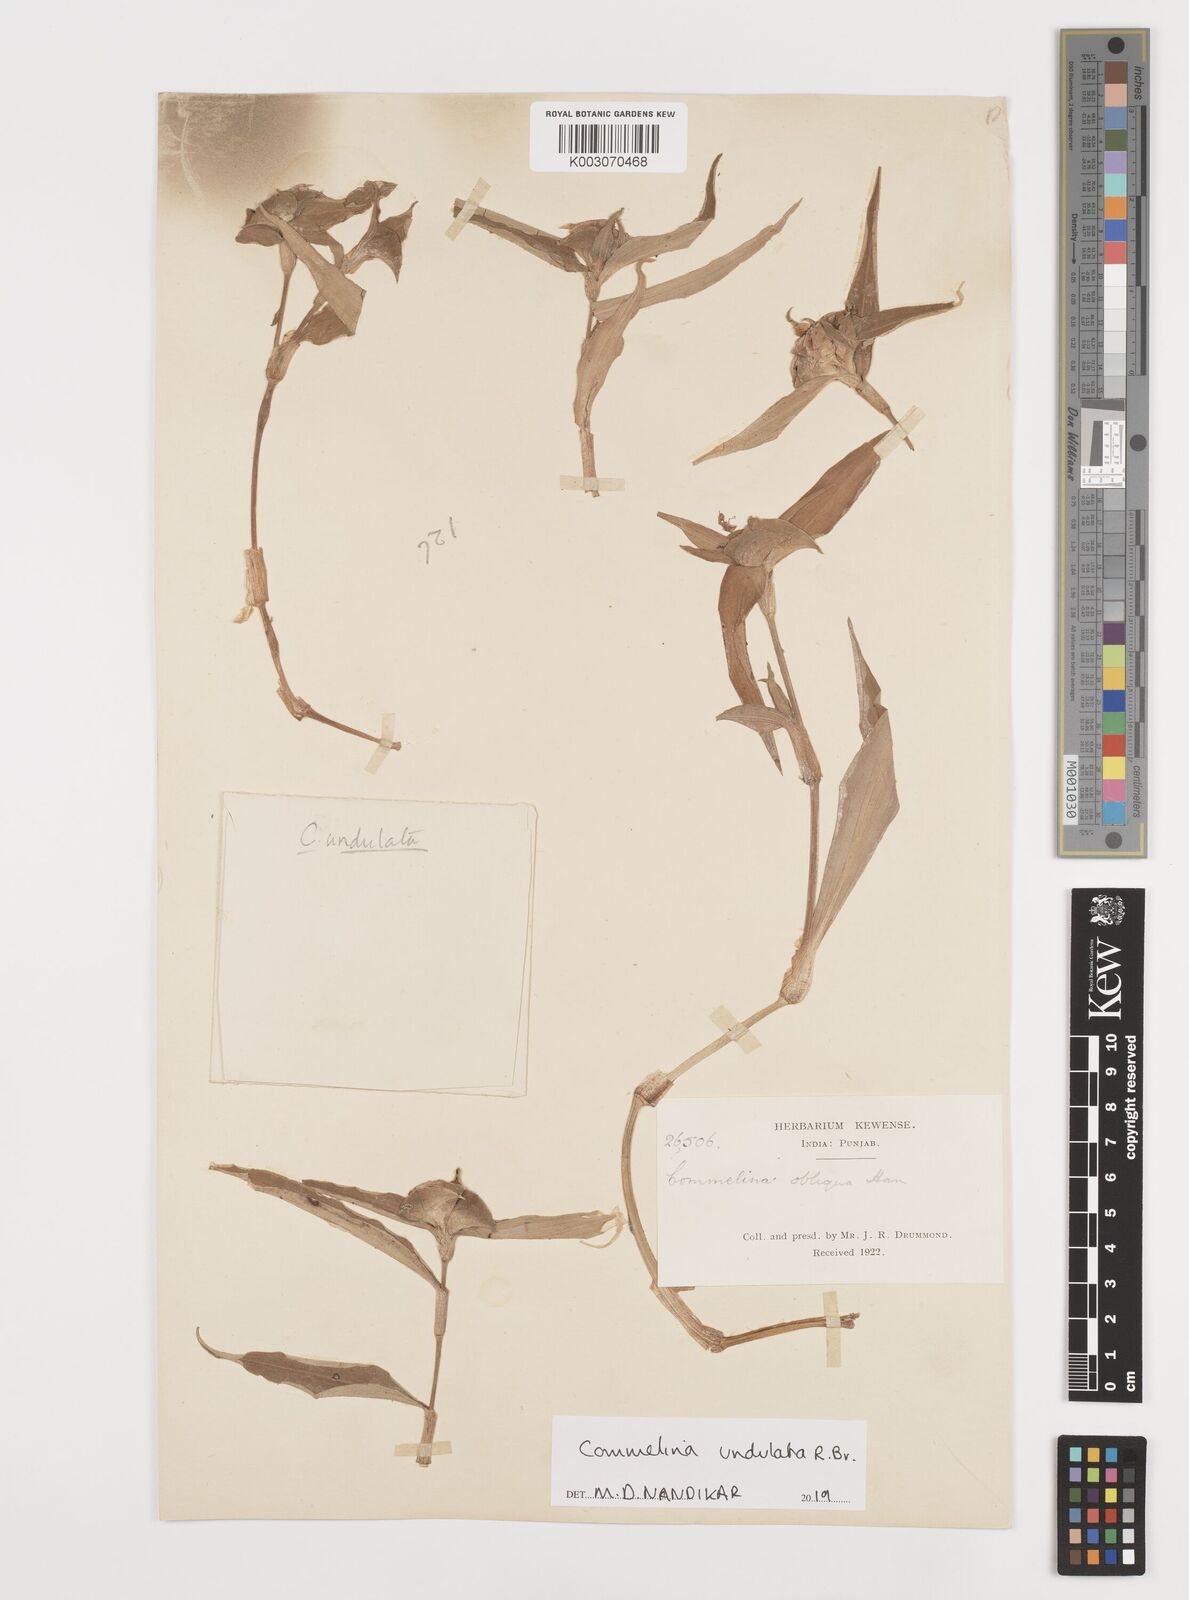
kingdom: Plantae
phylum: Tracheophyta
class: Liliopsida
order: Commelinales
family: Commelinaceae
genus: Commelina
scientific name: Commelina undulata
